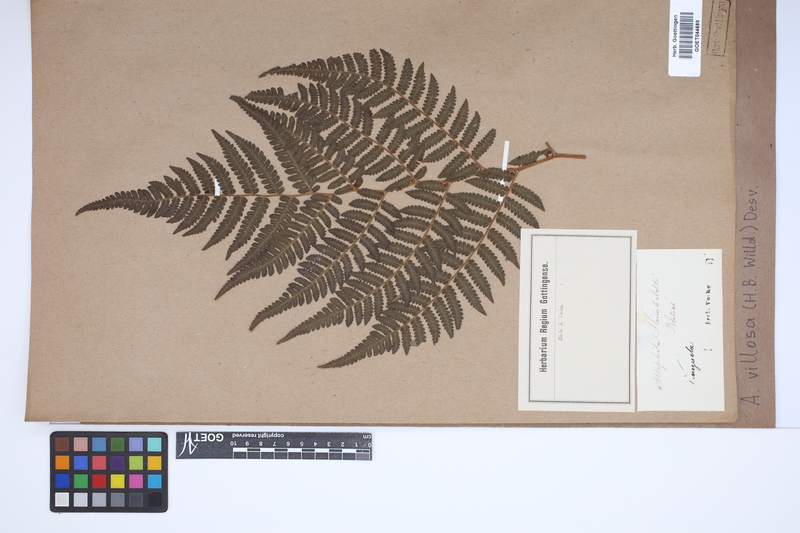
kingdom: Plantae
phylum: Tracheophyta
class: Polypodiopsida
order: Cyatheales
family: Cyatheaceae
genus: Cyathea
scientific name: Cyathea villosa
